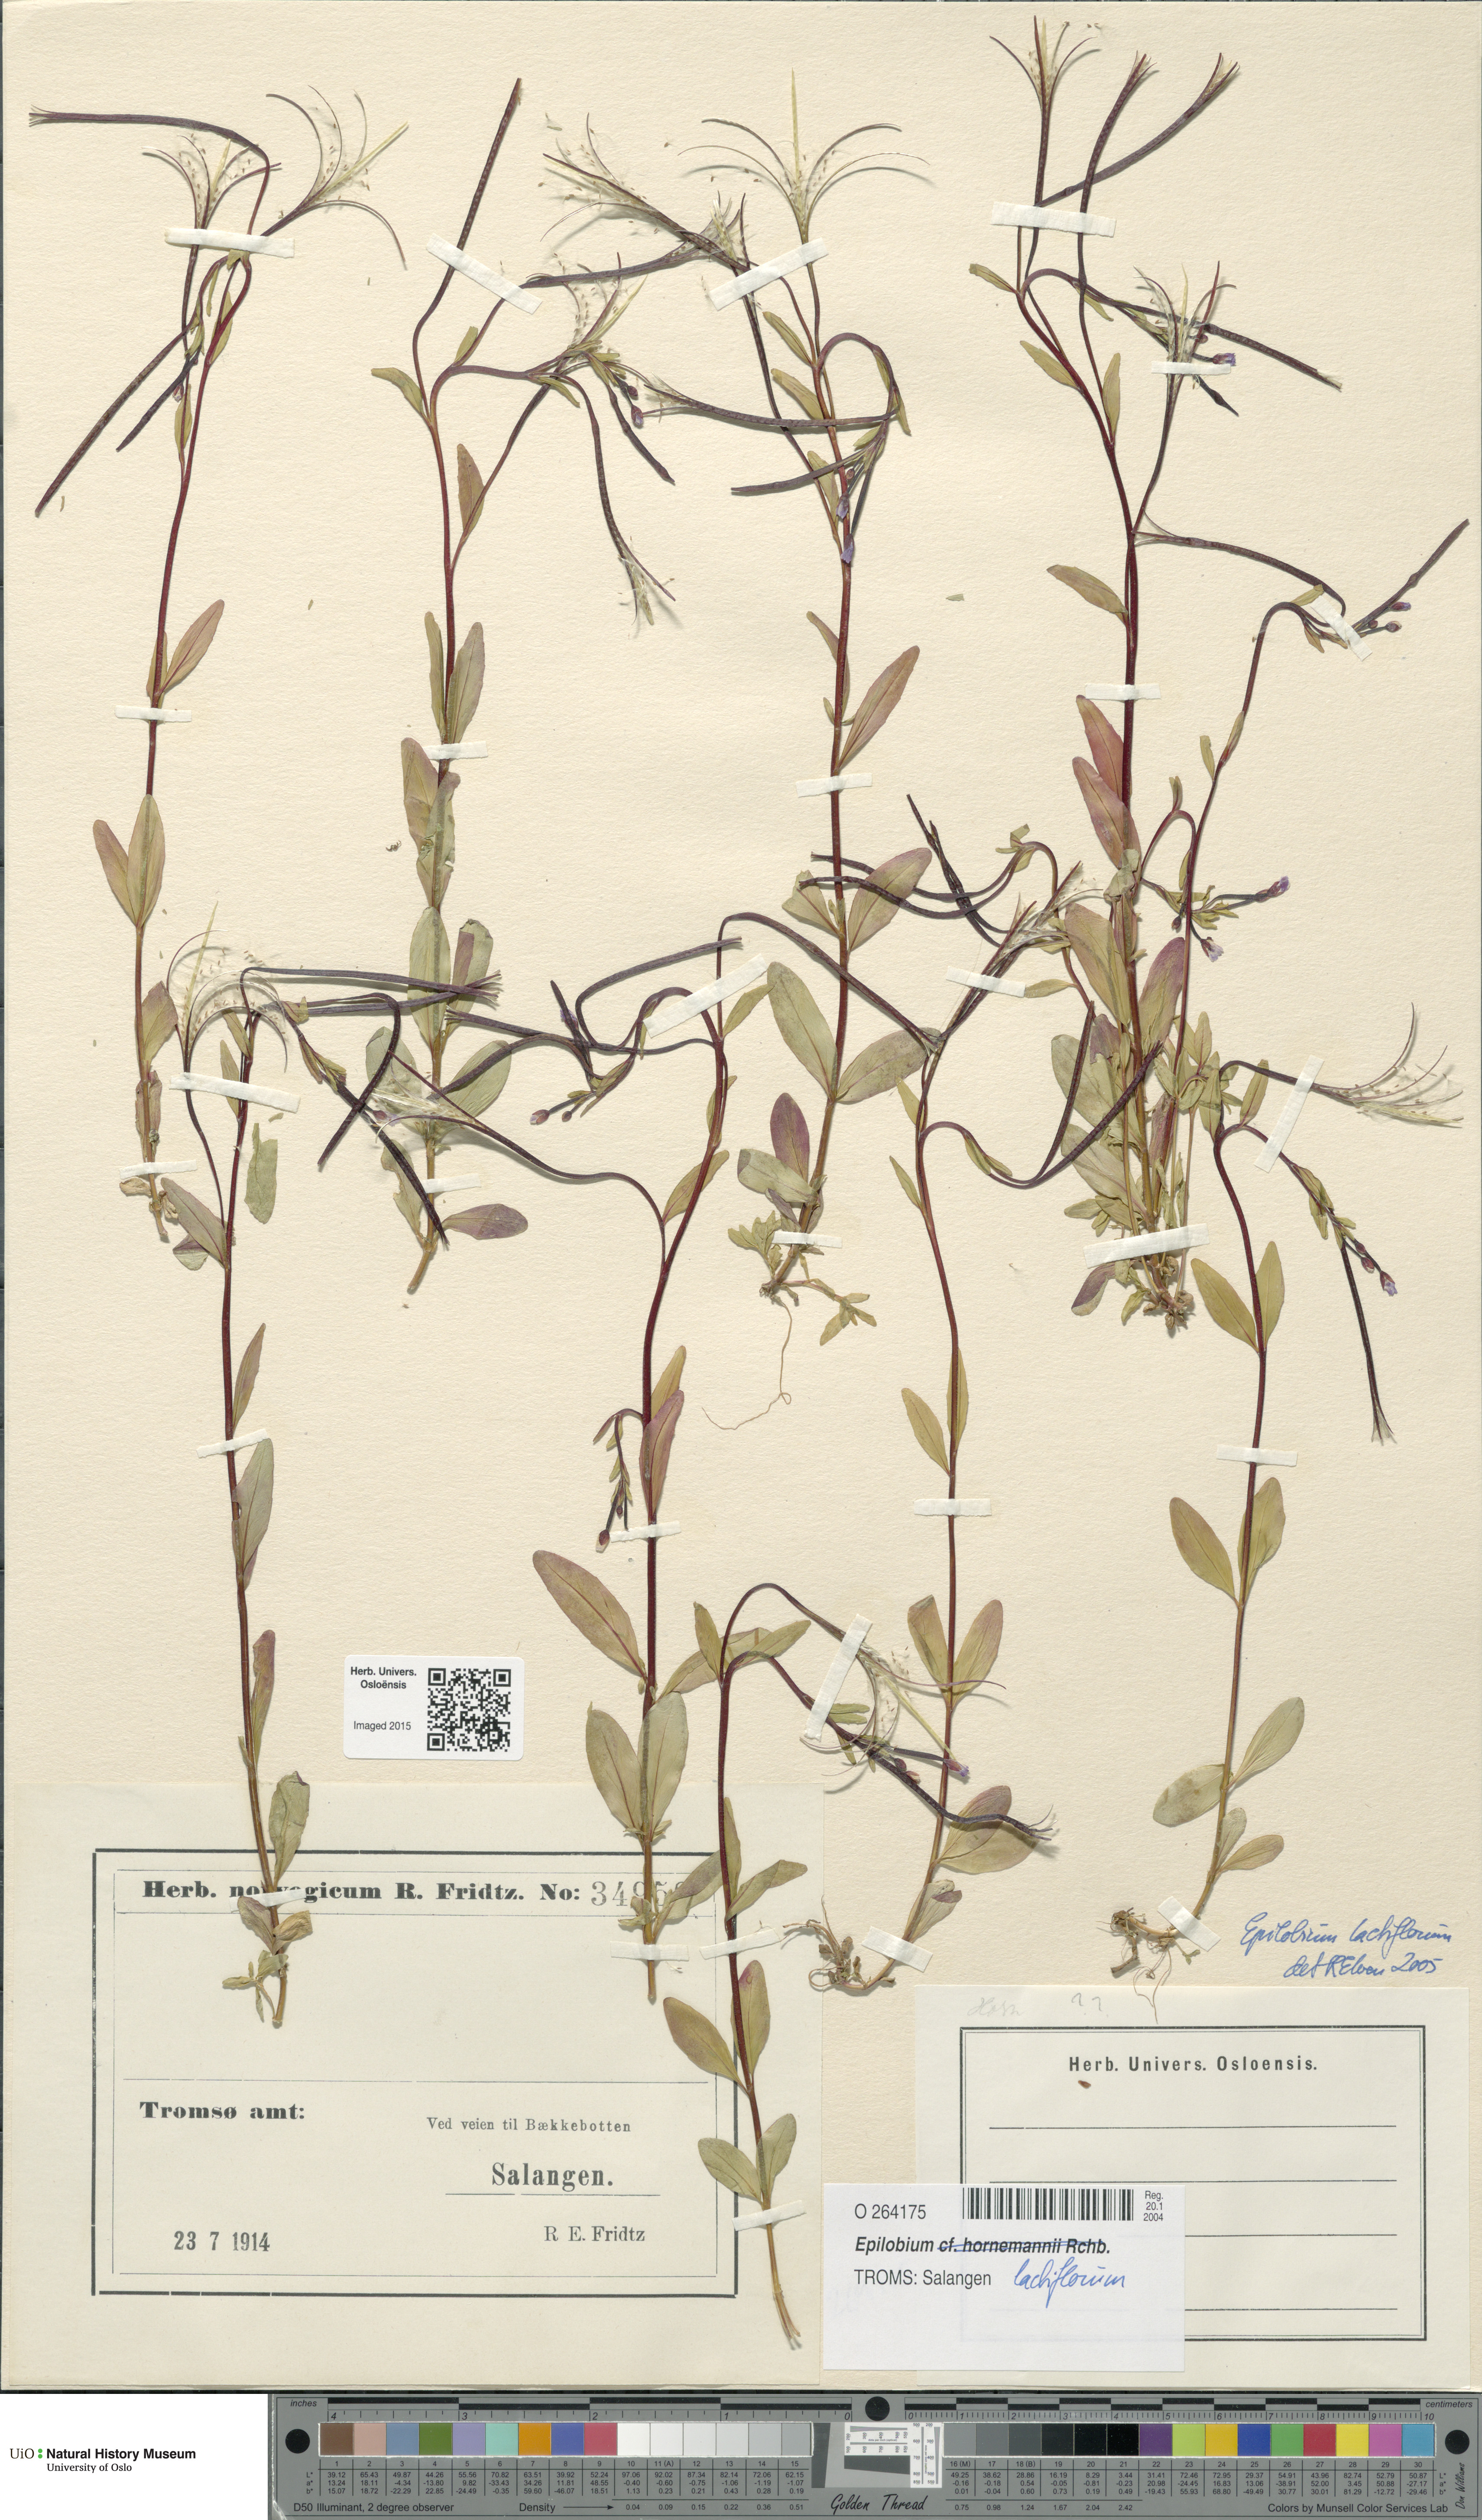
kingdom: Plantae
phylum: Tracheophyta
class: Magnoliopsida
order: Myrtales
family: Onagraceae
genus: Epilobium
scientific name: Epilobium lactiflorum
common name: Milkflower willowherb
